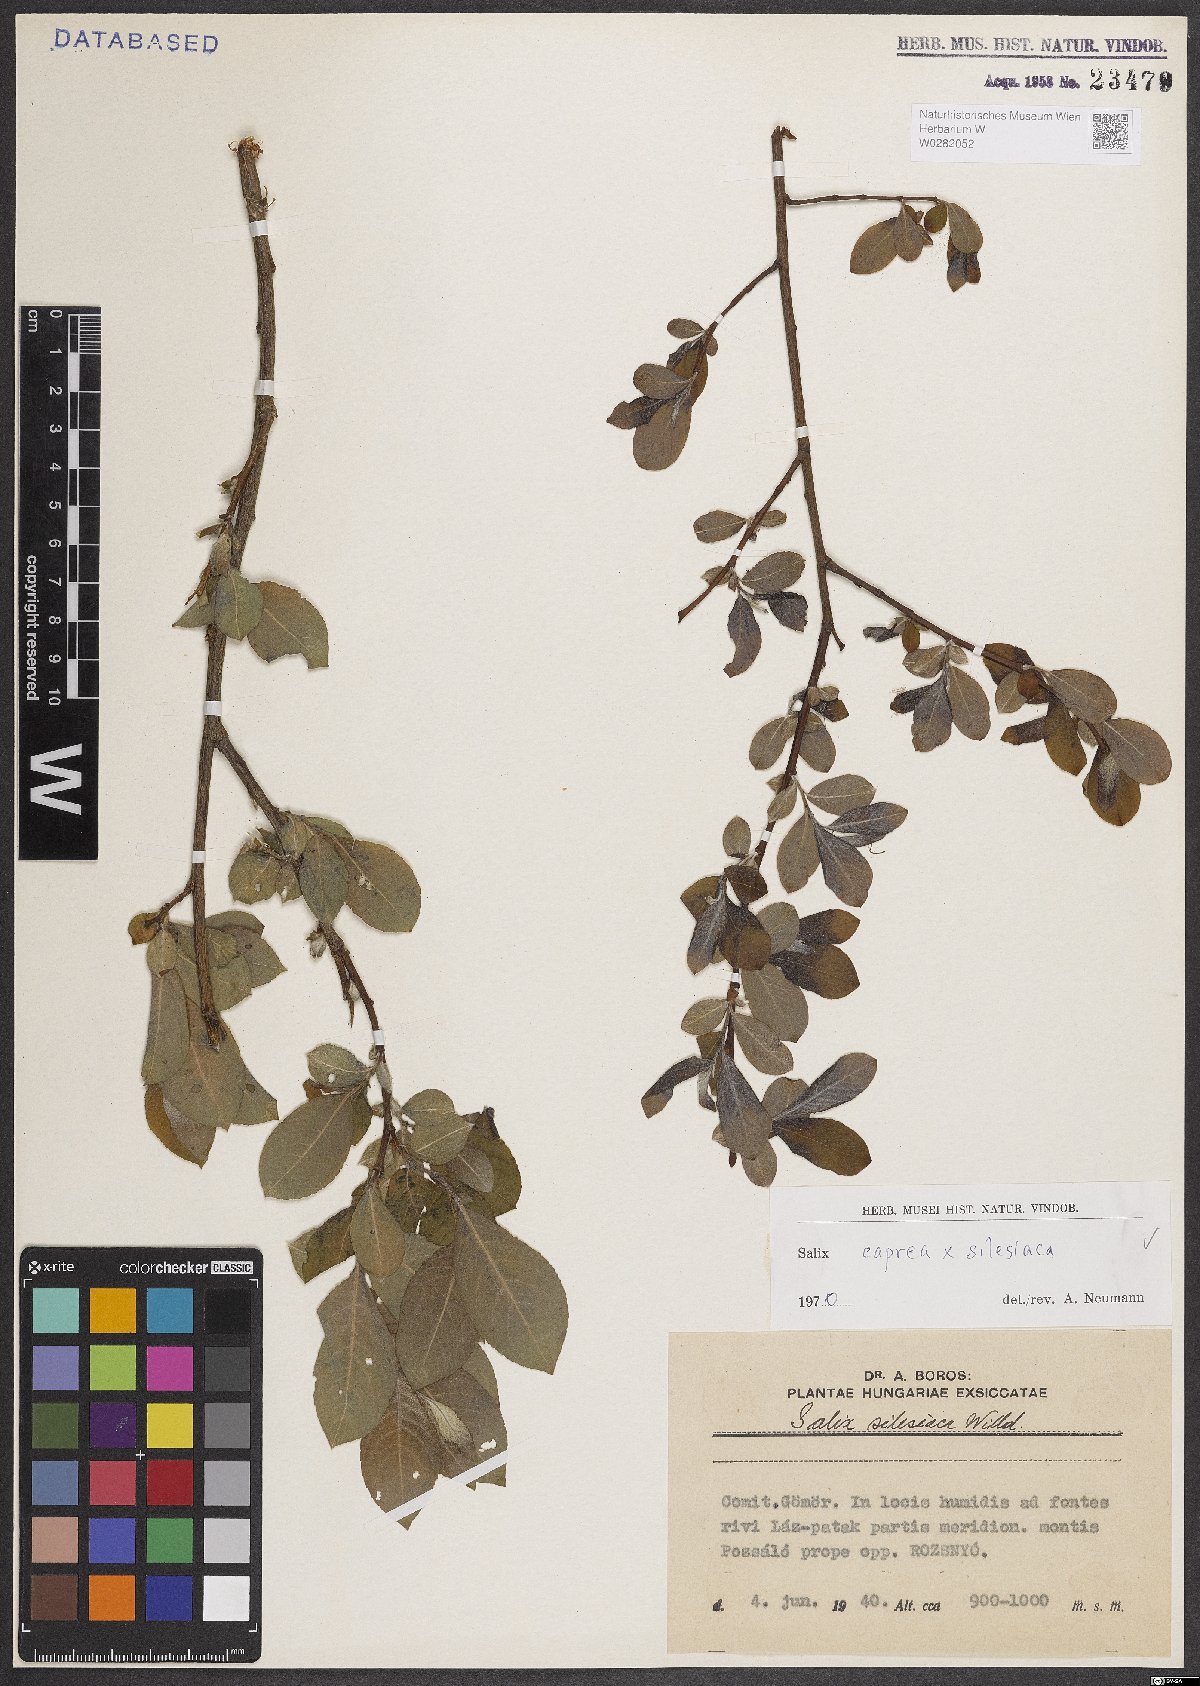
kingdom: Plantae
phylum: Tracheophyta
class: Magnoliopsida
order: Malpighiales
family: Salicaceae
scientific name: Salicaceae
